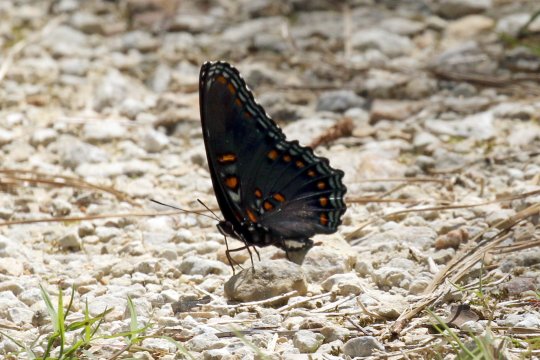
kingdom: Animalia
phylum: Arthropoda
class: Insecta
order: Lepidoptera
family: Nymphalidae
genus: Limenitis
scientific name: Limenitis arthemis
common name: Red-spotted Admiral
